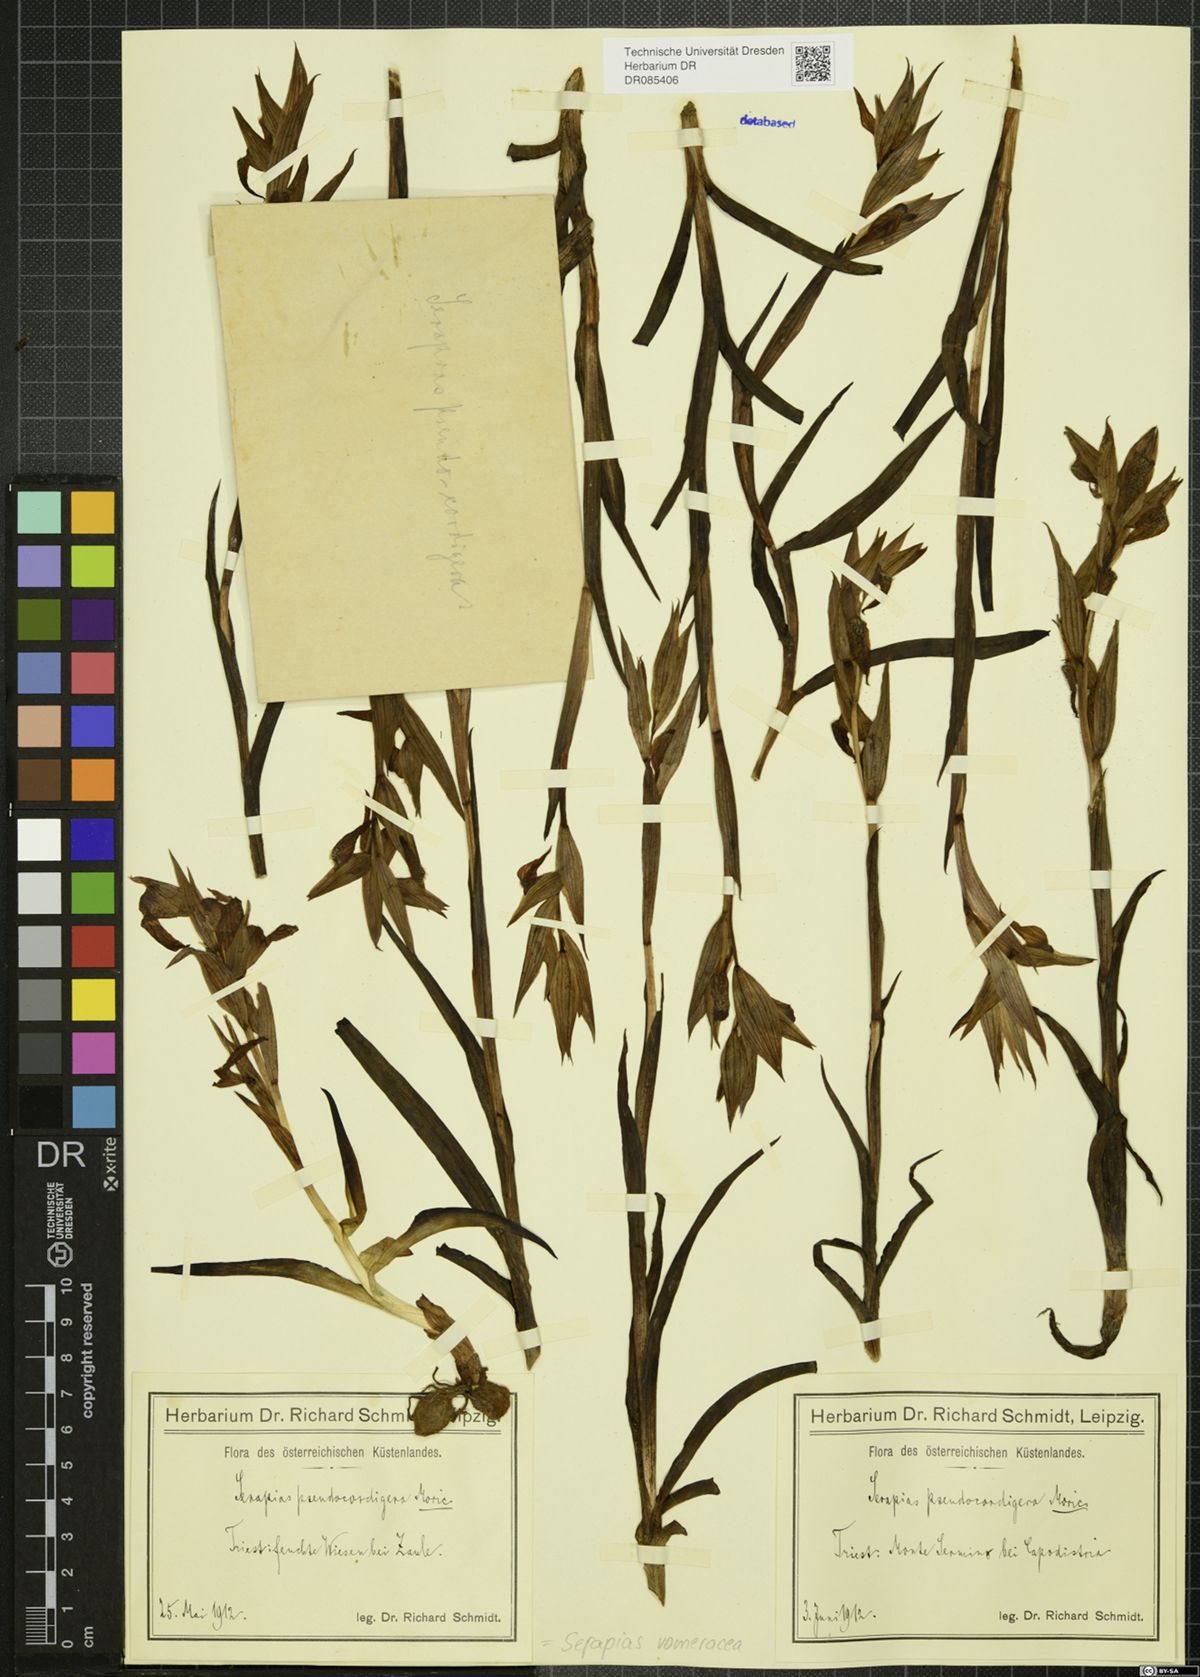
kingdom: Plantae
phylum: Tracheophyta
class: Liliopsida
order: Asparagales
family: Orchidaceae
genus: Serapias
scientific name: Serapias vomeracea
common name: Long-lipped tongue-orchid
